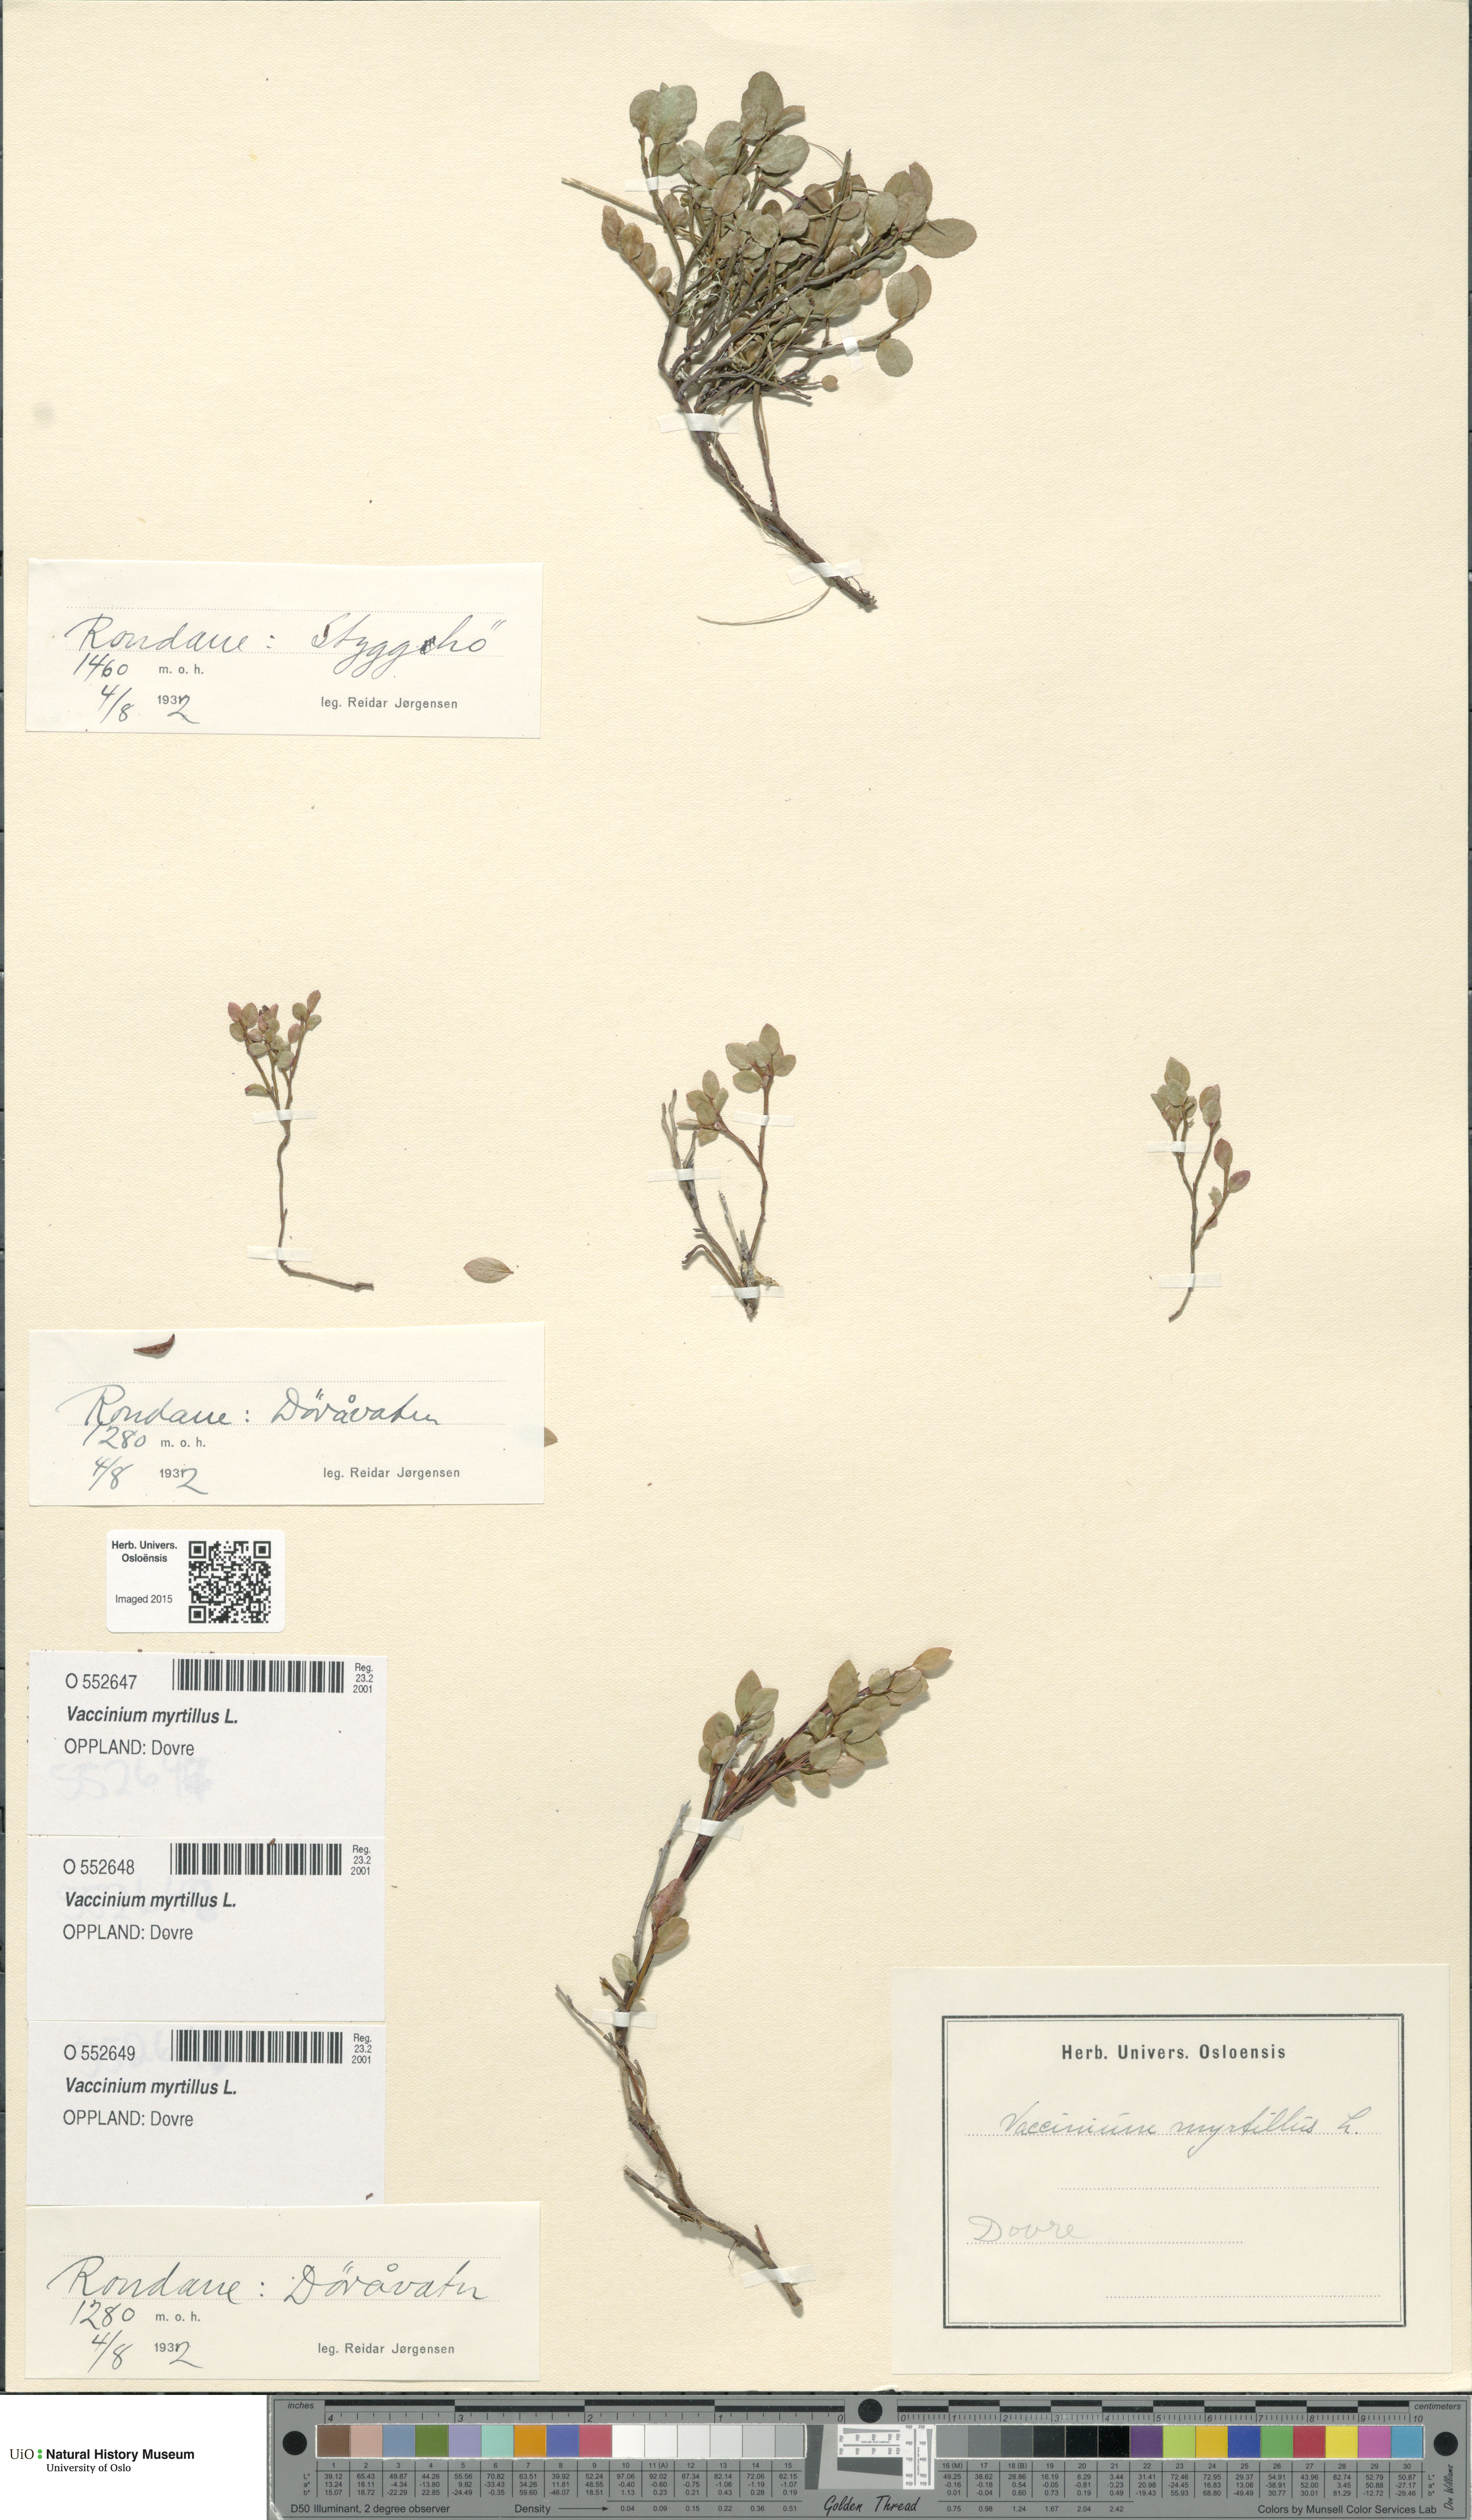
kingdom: Plantae
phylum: Tracheophyta
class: Magnoliopsida
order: Ericales
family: Ericaceae
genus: Vaccinium
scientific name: Vaccinium myrtillus
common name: Bilberry
